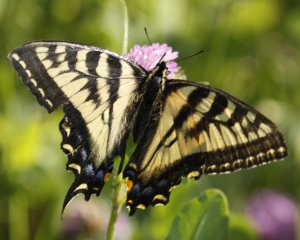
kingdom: Animalia
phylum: Arthropoda
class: Insecta
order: Lepidoptera
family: Papilionidae
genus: Pterourus
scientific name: Pterourus canadensis
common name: Canadian Tiger Swallowtail
